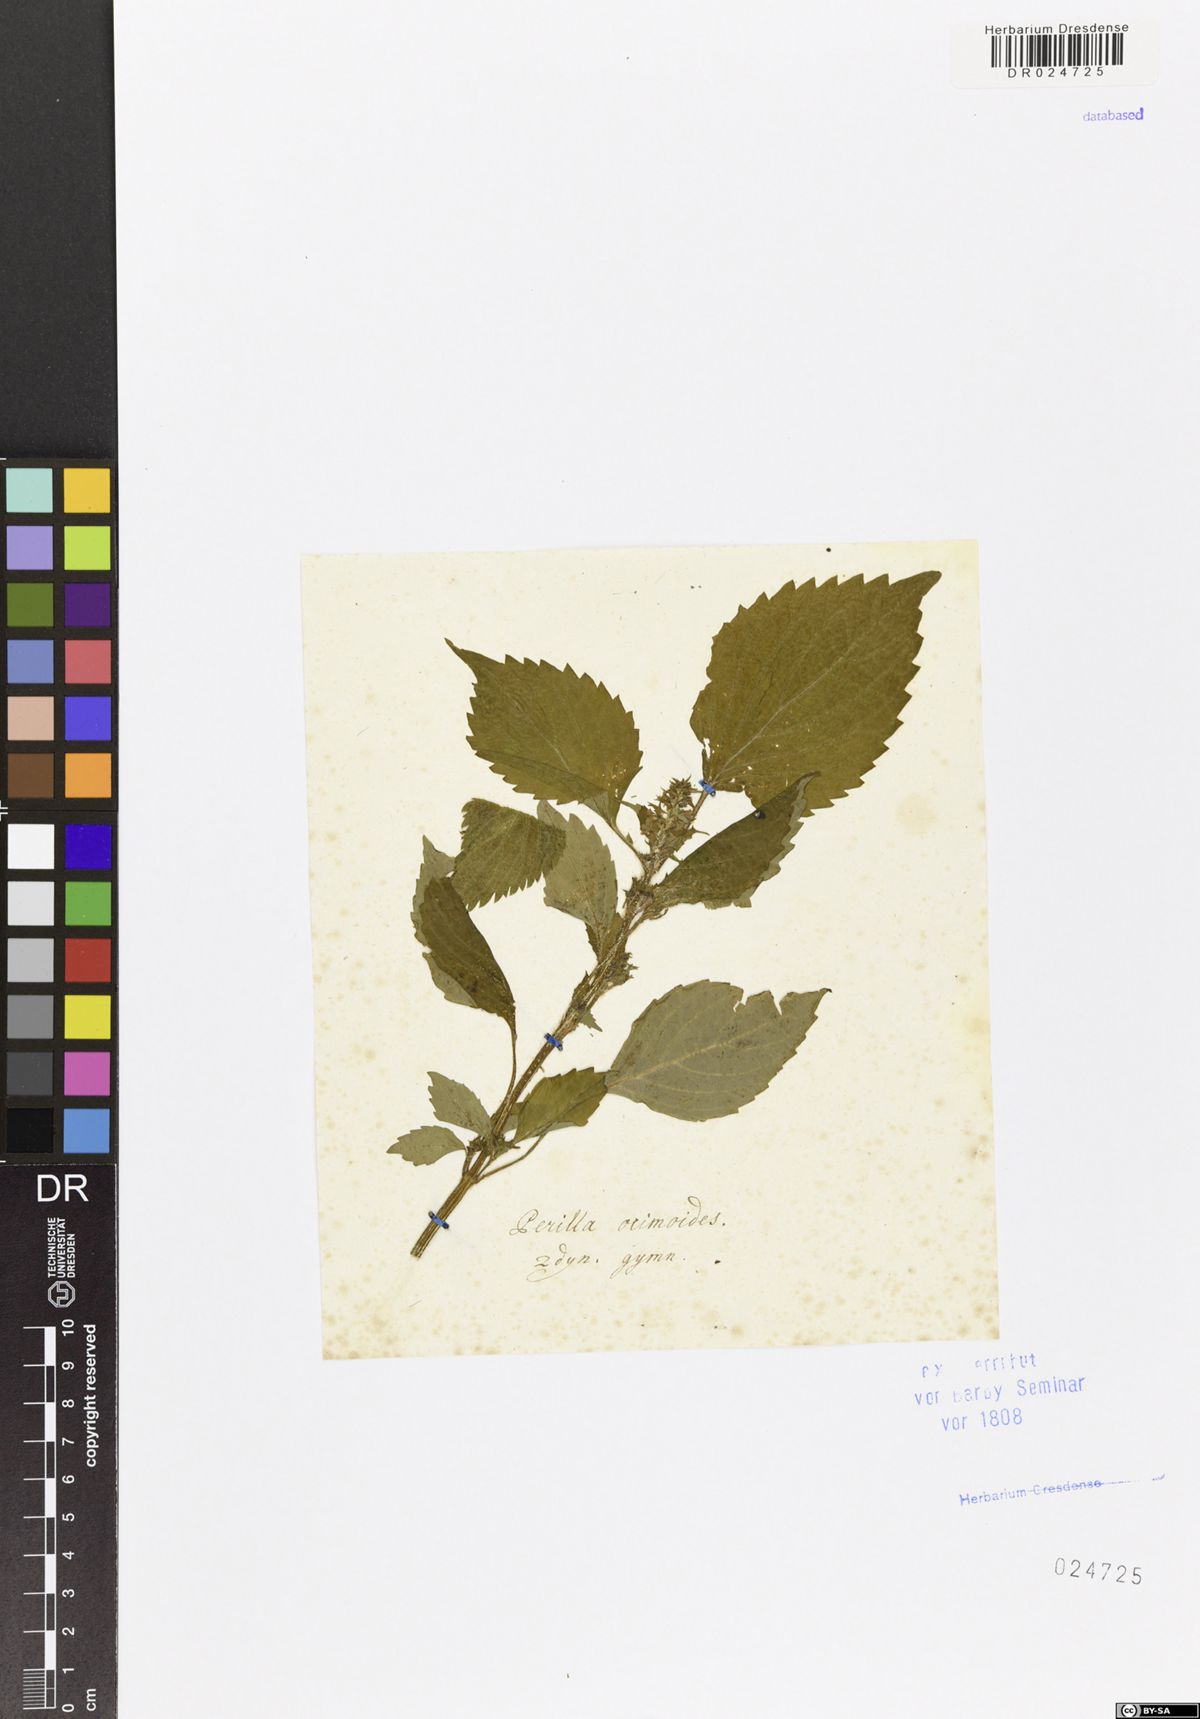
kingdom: Plantae
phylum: Tracheophyta
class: Magnoliopsida
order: Lamiales
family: Lamiaceae
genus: Perilla
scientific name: Perilla frutescens
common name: Perilla
